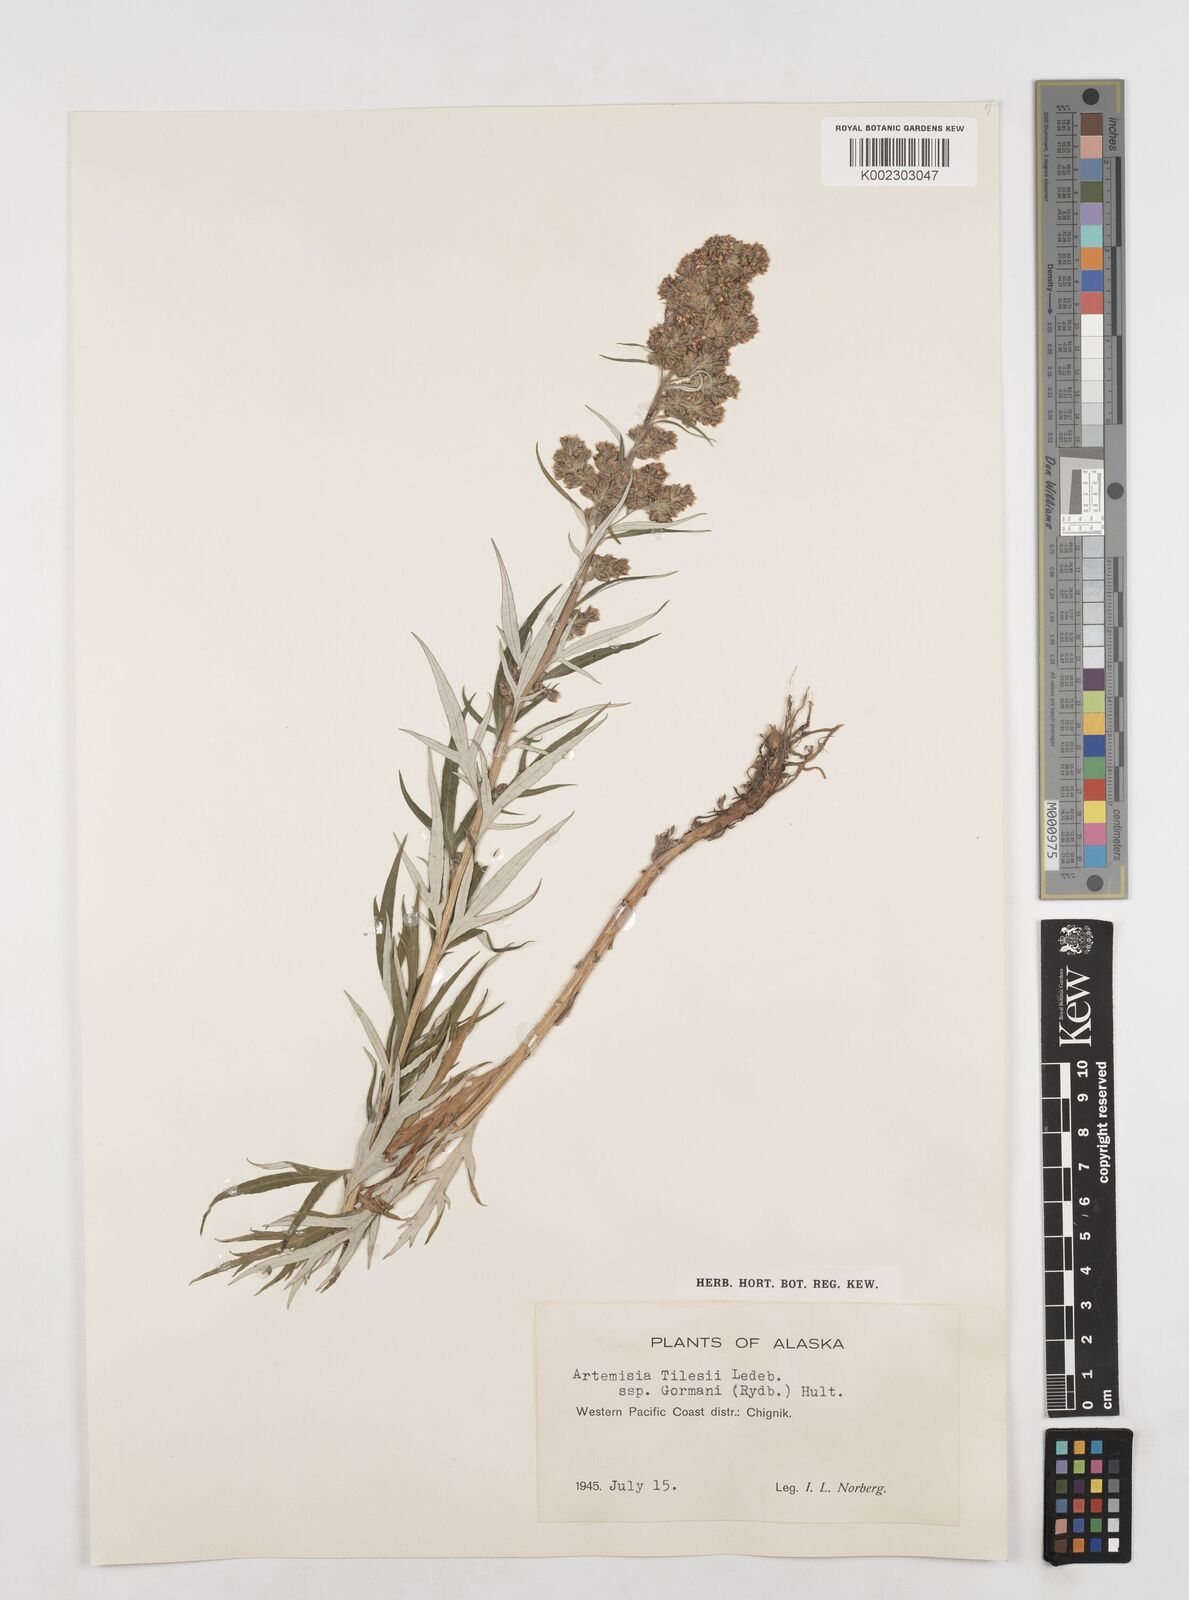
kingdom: Plantae
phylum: Tracheophyta
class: Magnoliopsida
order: Asterales
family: Asteraceae
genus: Artemisia
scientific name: Artemisia tilesii
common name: Aleutian mugwort
